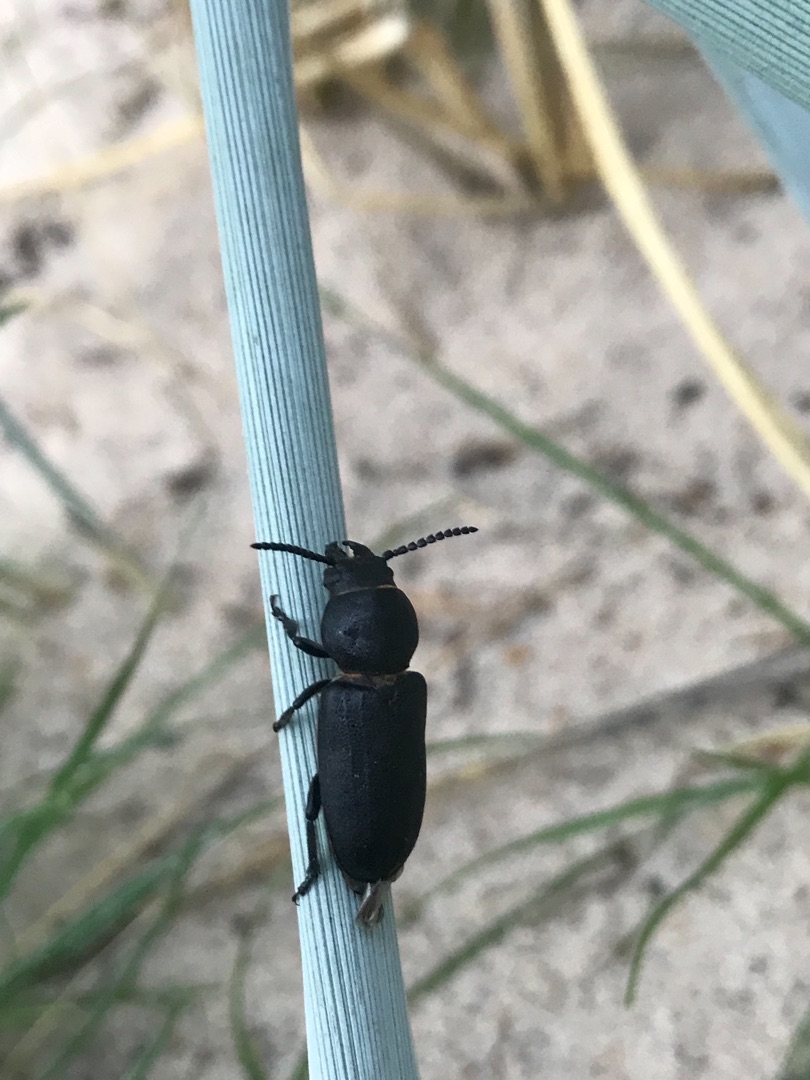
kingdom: Animalia
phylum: Arthropoda
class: Insecta
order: Coleoptera
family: Cerambycidae
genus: Spondylis
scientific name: Spondylis buprestoides
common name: Valsebuk
